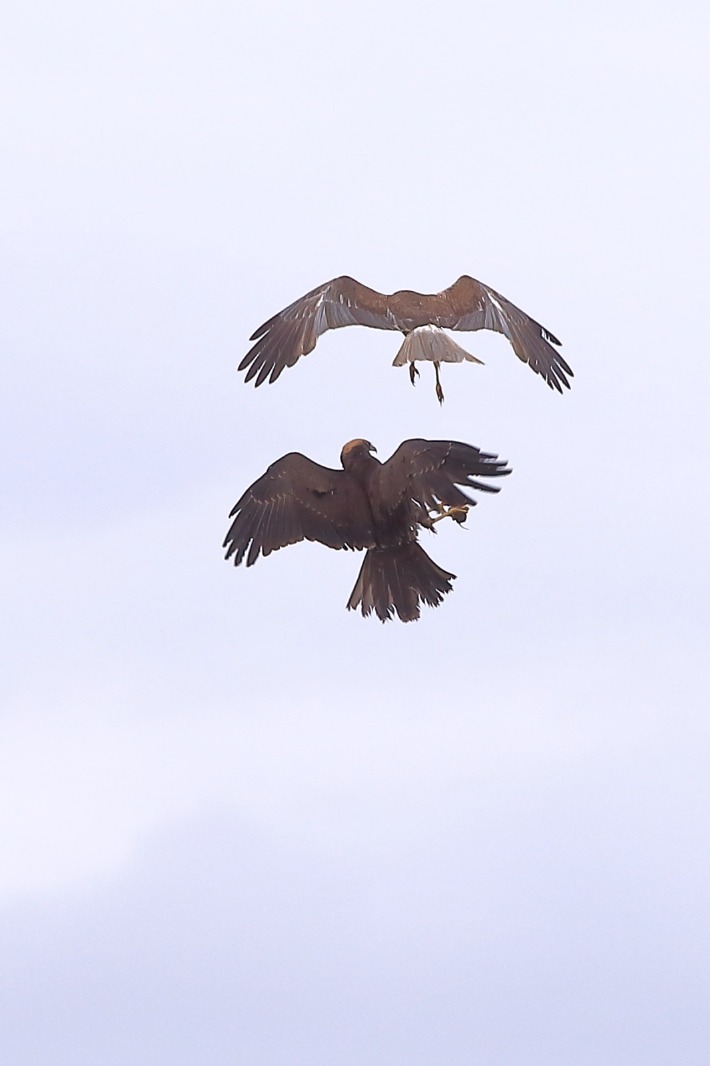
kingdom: Animalia
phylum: Chordata
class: Aves
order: Accipitriformes
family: Accipitridae
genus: Circus
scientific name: Circus aeruginosus
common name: Rørhøg
